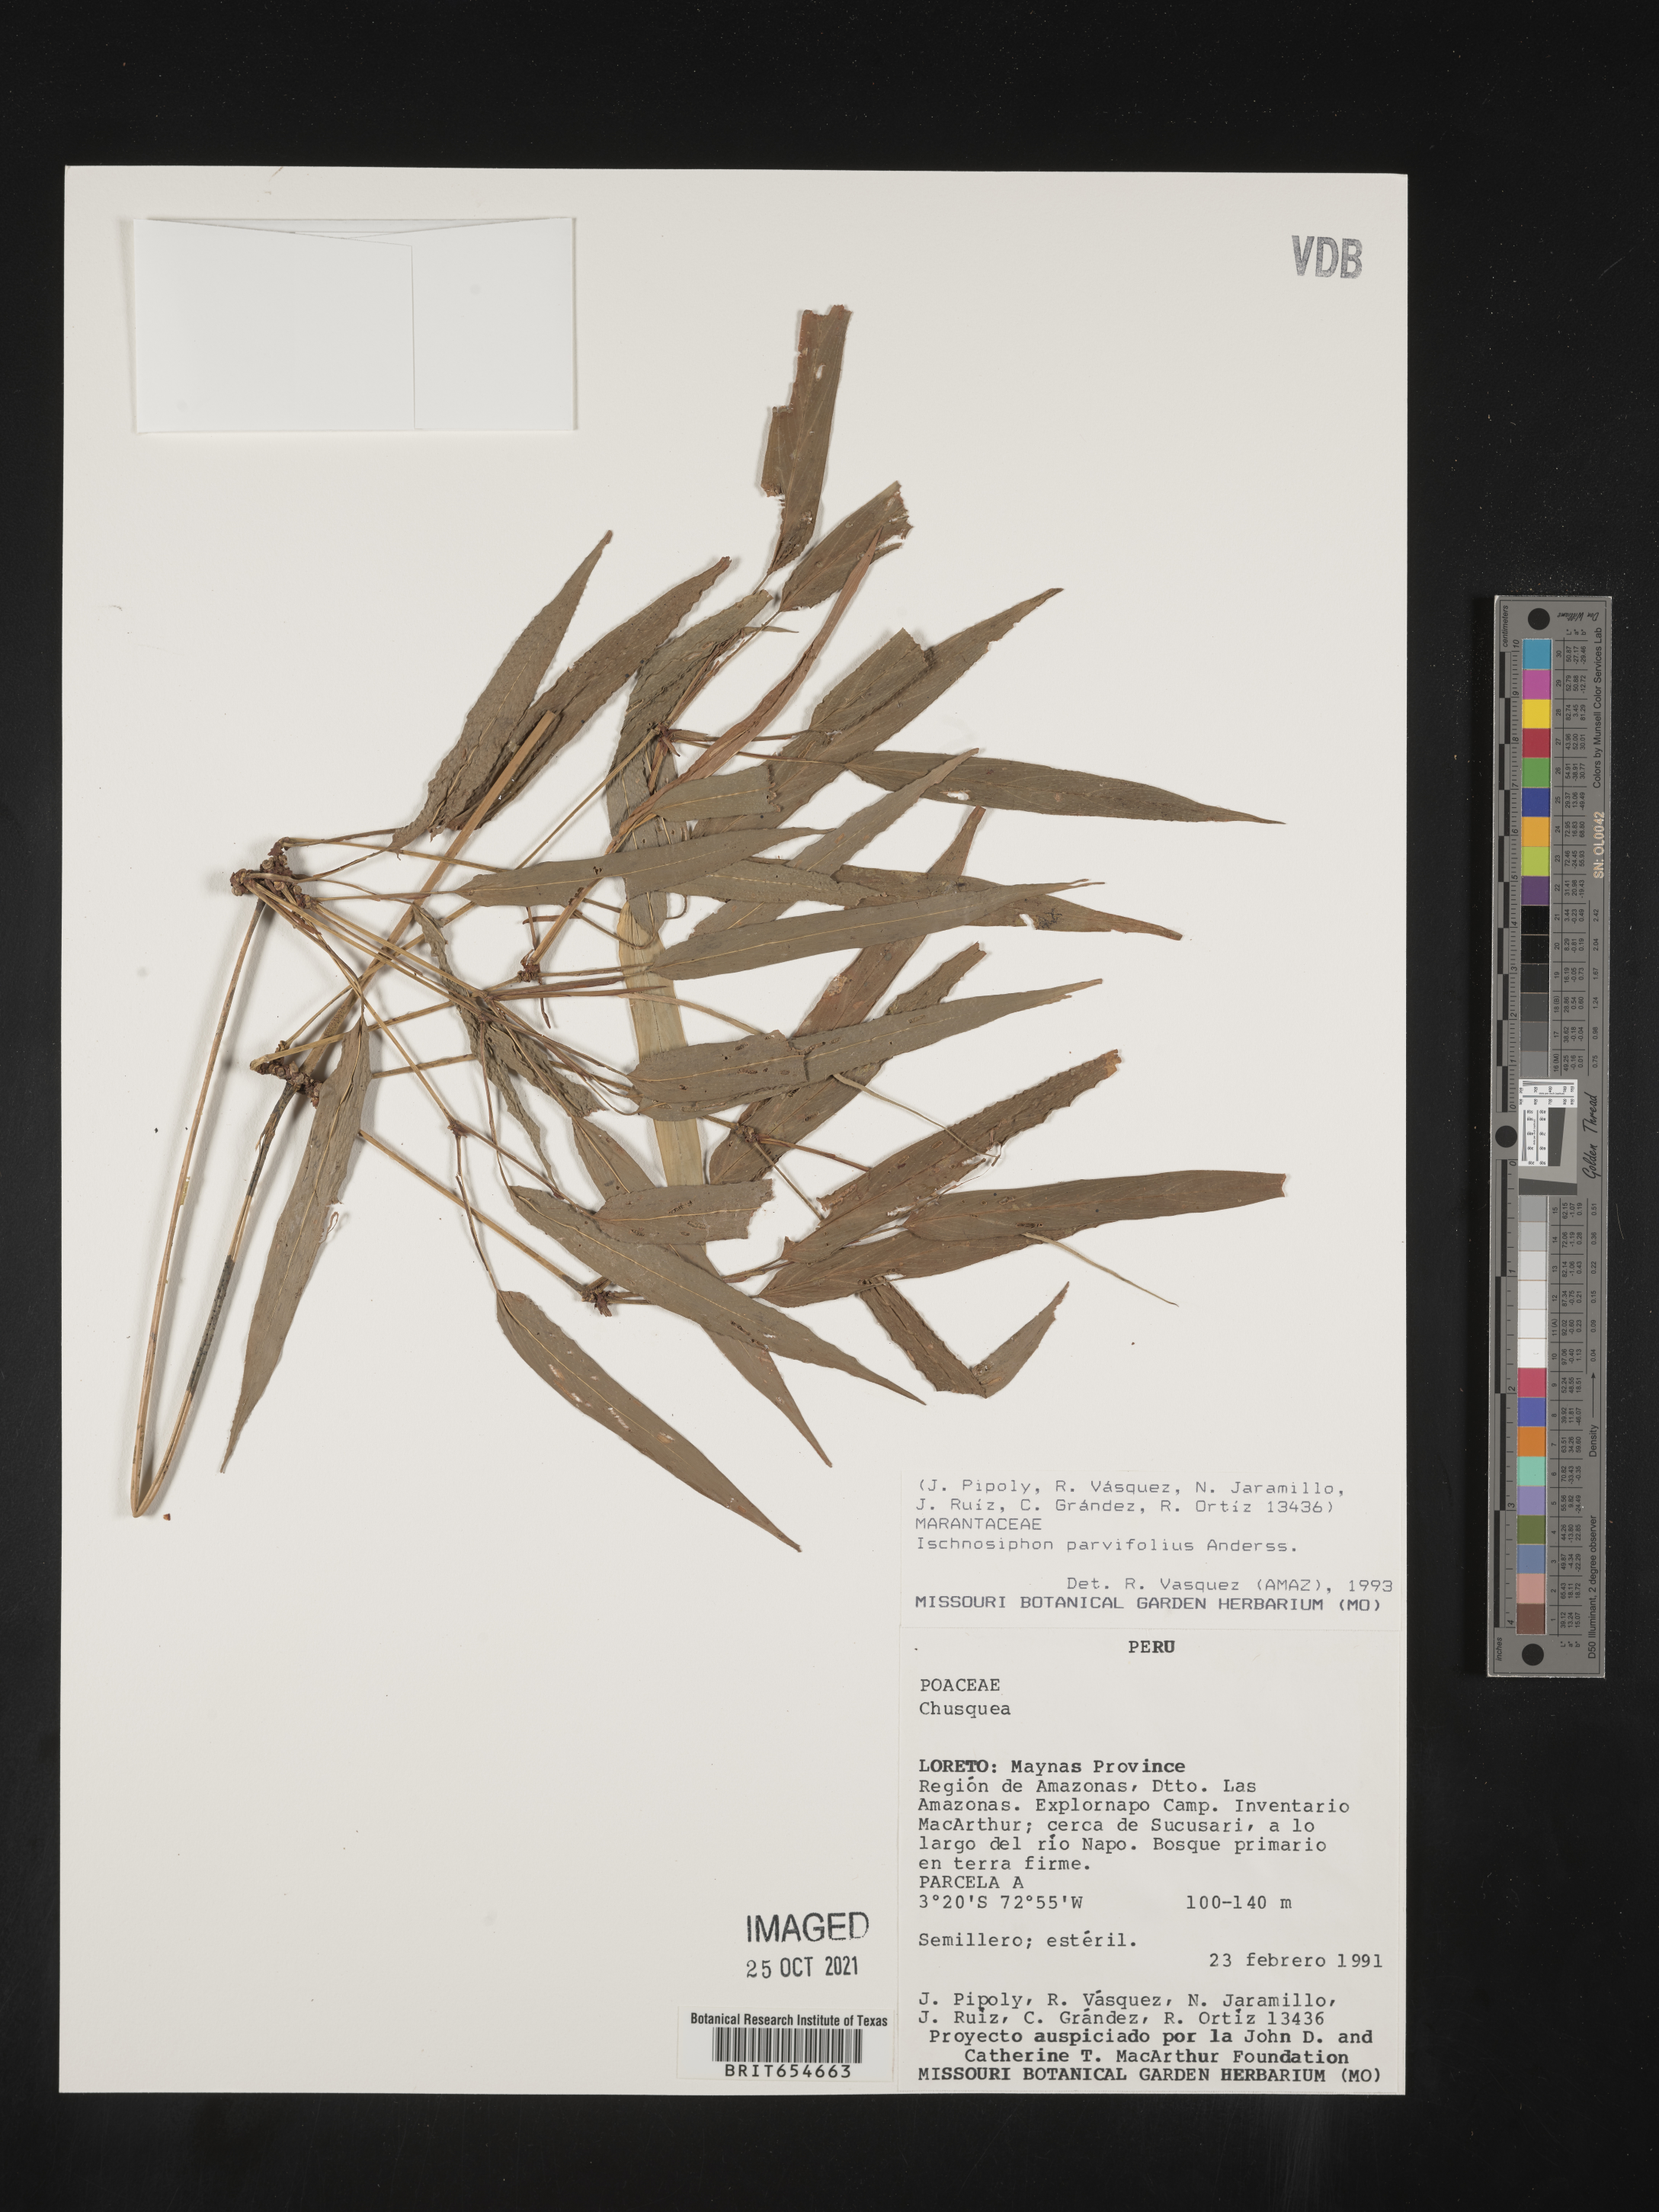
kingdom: Plantae
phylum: Tracheophyta
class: Liliopsida
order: Zingiberales
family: Marantaceae
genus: Ischnosiphon
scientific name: Ischnosiphon
